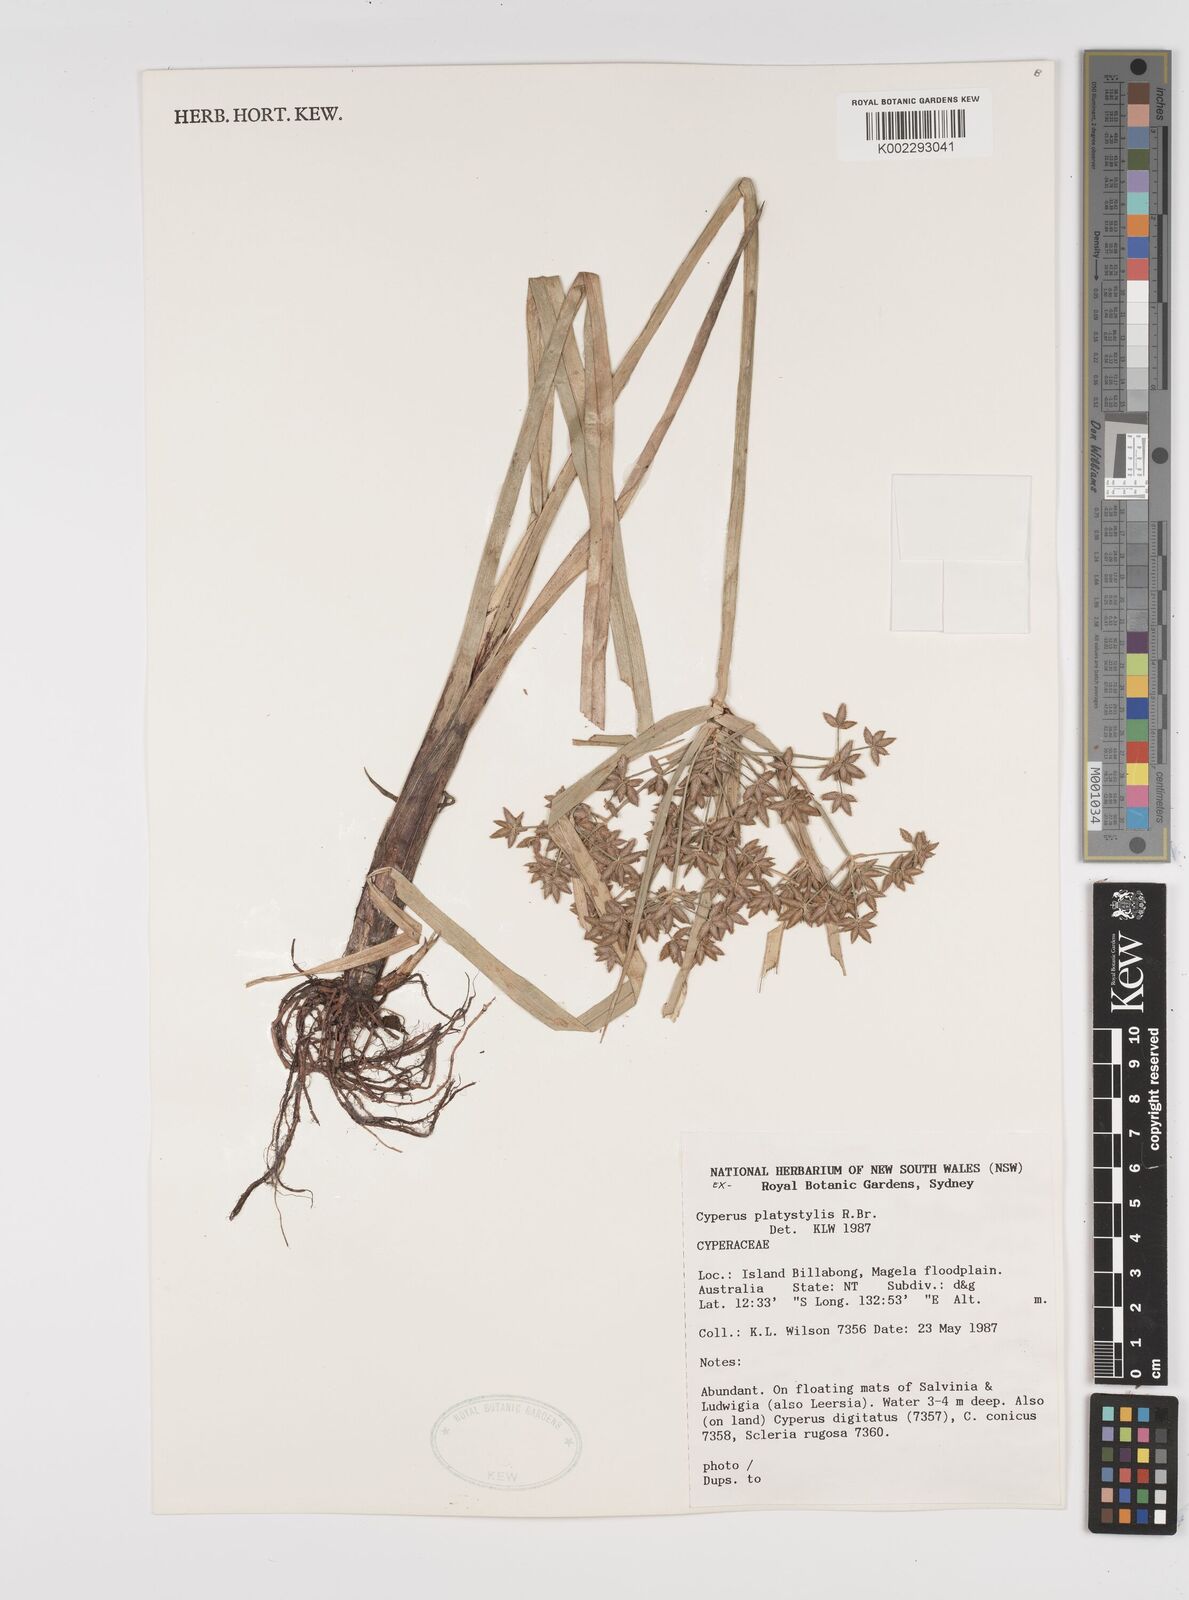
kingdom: Plantae
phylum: Tracheophyta
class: Liliopsida
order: Poales
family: Cyperaceae
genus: Cyperus
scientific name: Cyperus platystylis
